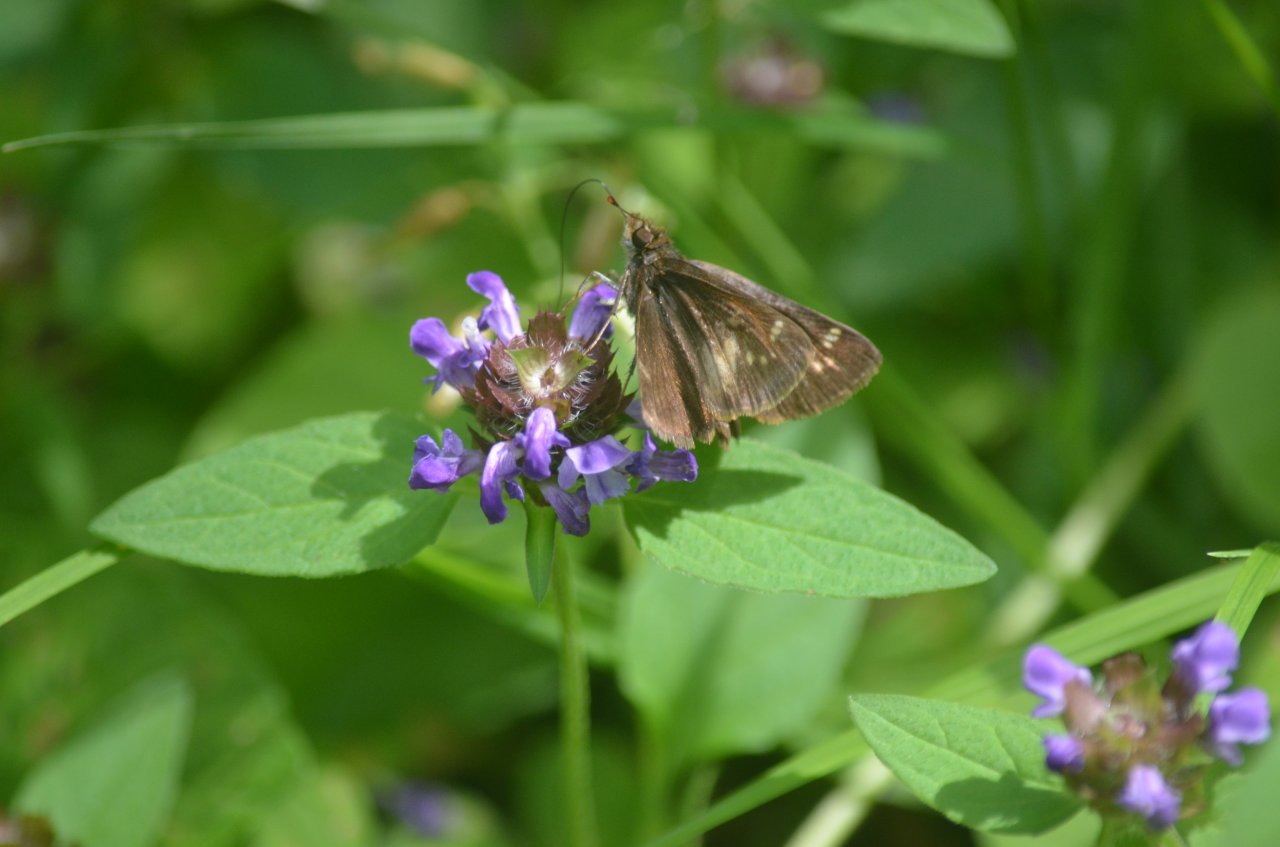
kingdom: Animalia
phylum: Arthropoda
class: Insecta
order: Lepidoptera
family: Hesperiidae
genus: Euphyes
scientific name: Euphyes vestris
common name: Dun Skipper
